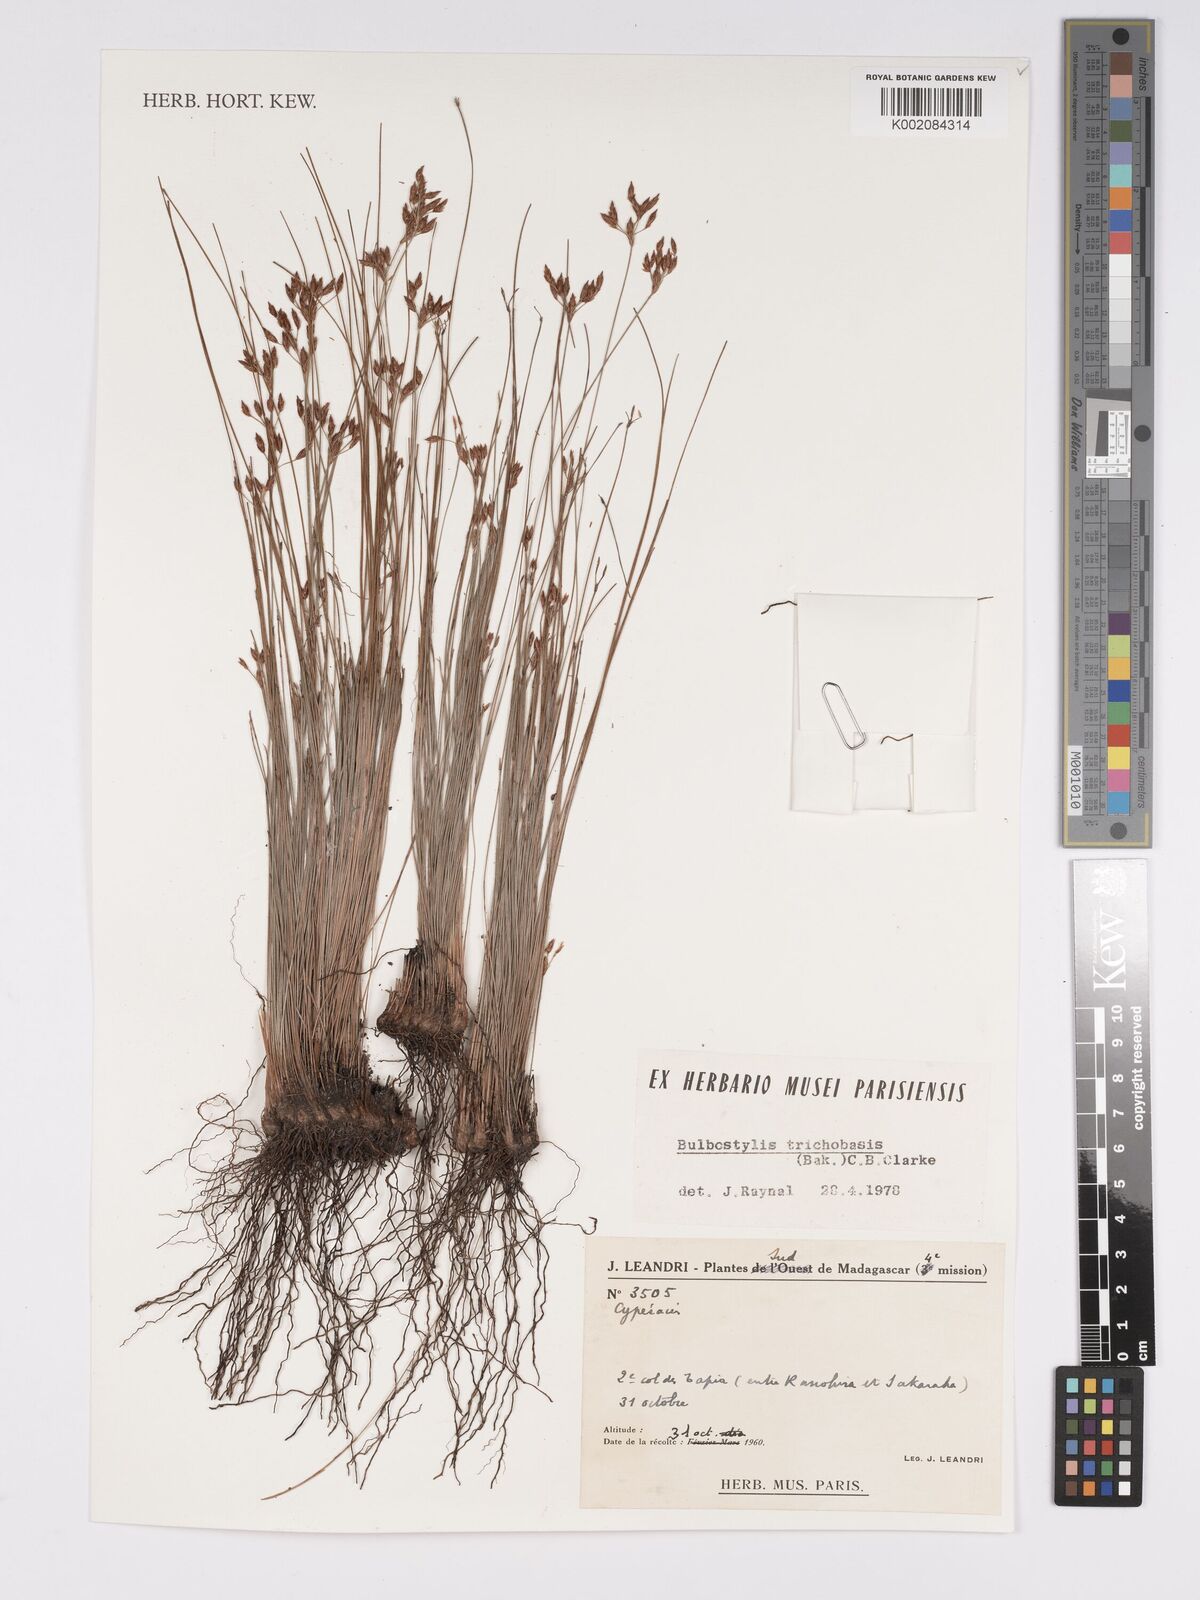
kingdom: Plantae
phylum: Tracheophyta
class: Liliopsida
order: Poales
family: Cyperaceae
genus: Bulbostylis
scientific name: Bulbostylis trichobasis
